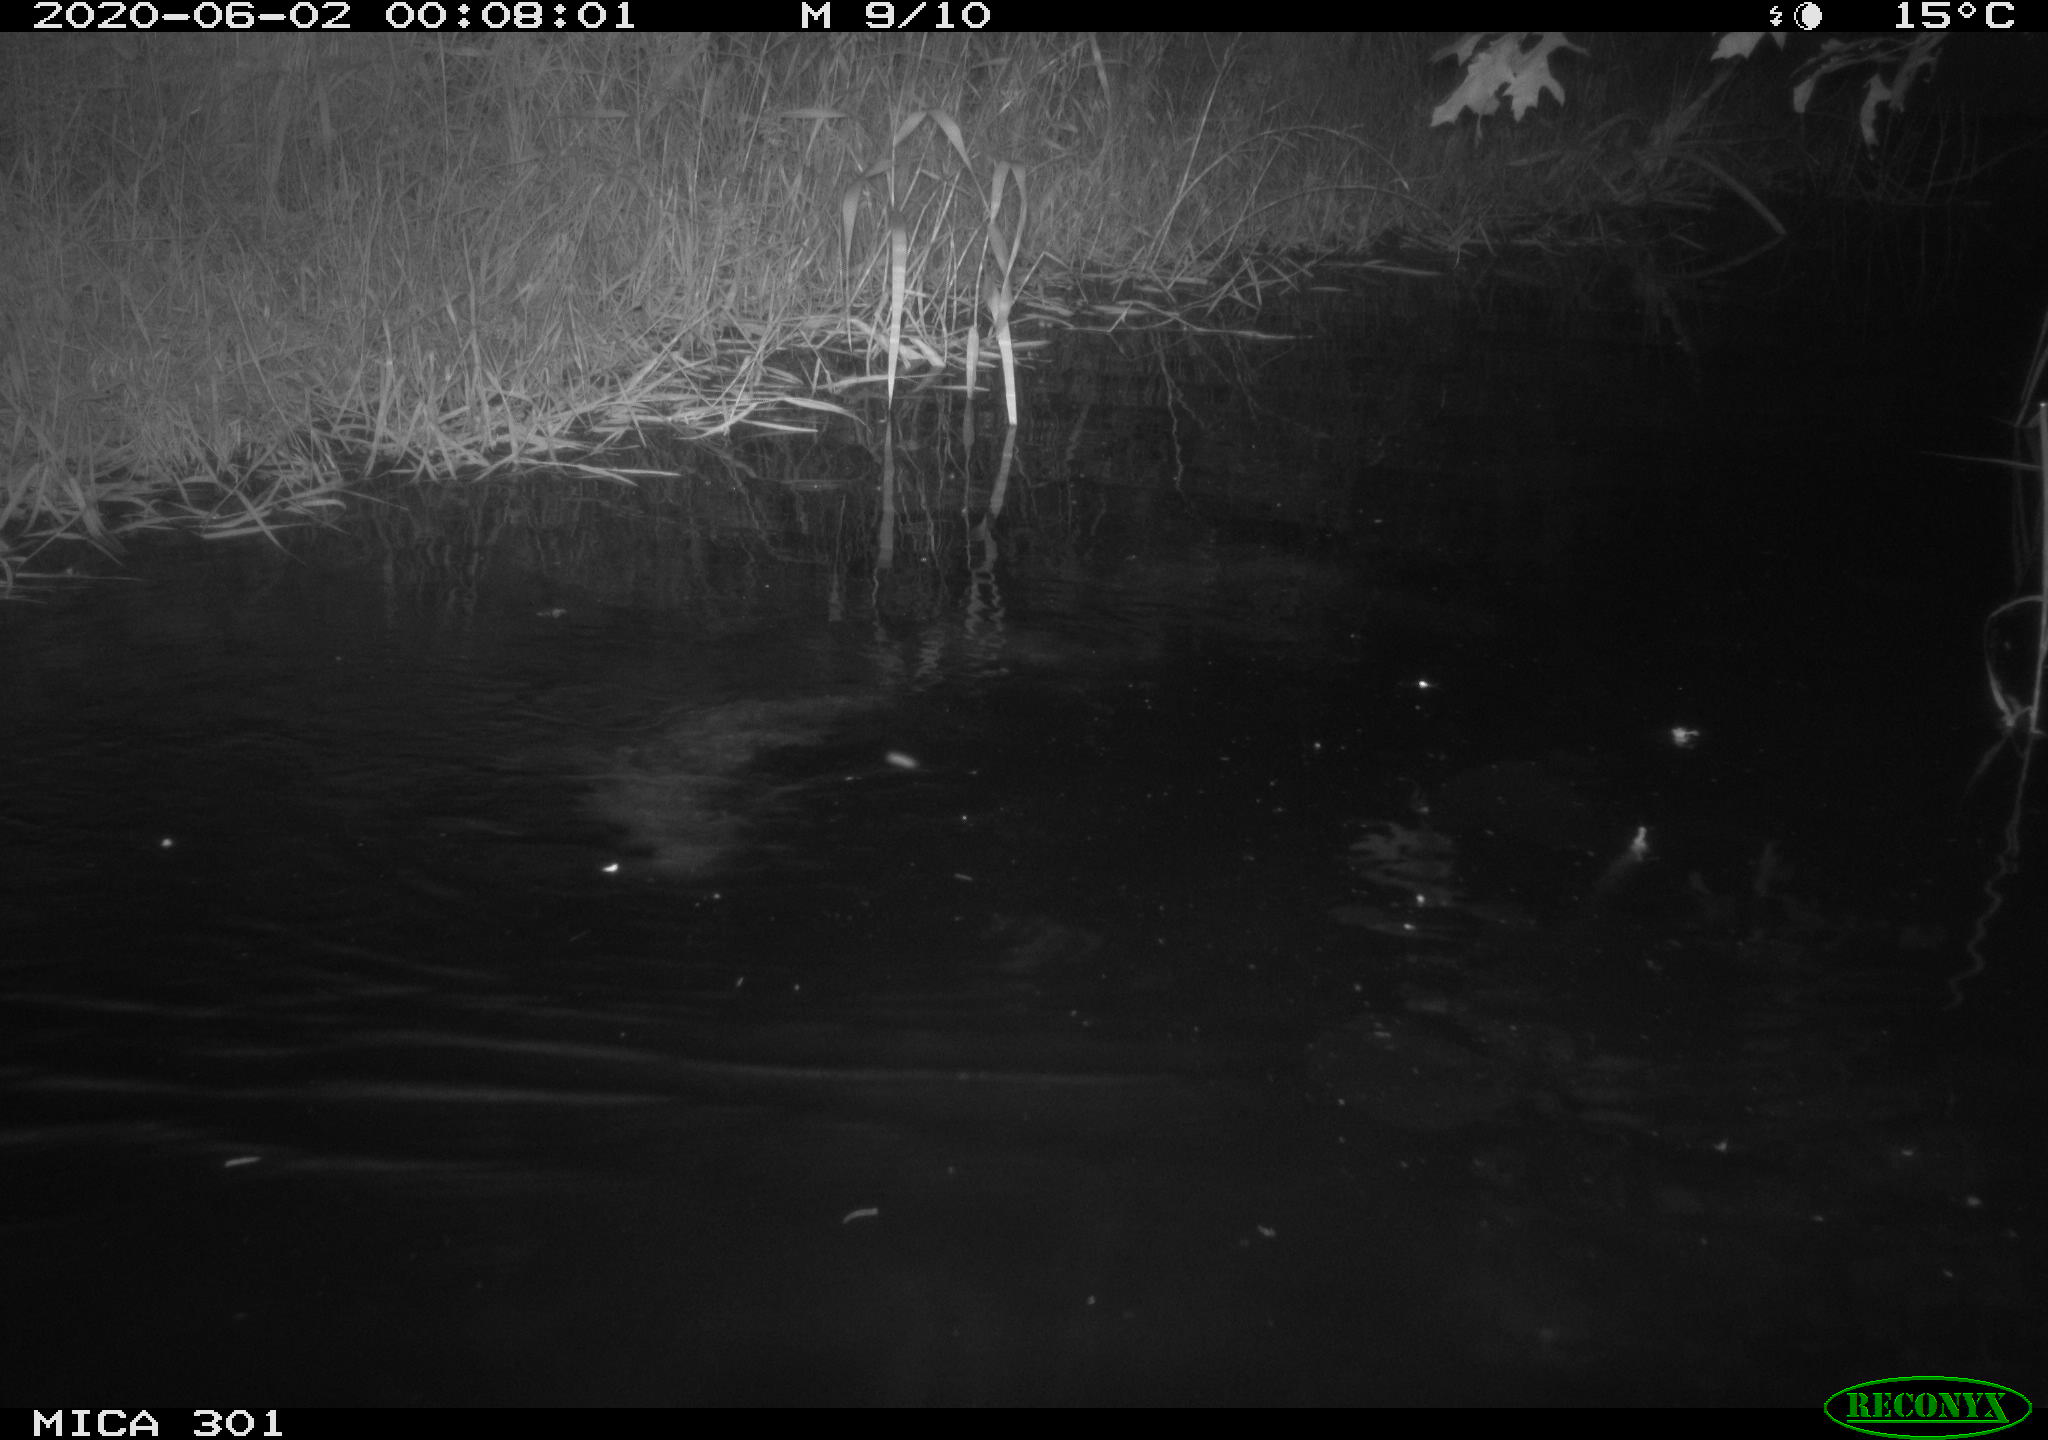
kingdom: Animalia
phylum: Chordata
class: Mammalia
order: Rodentia
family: Castoridae
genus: Castor
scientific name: Castor fiber
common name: Eurasian beaver
